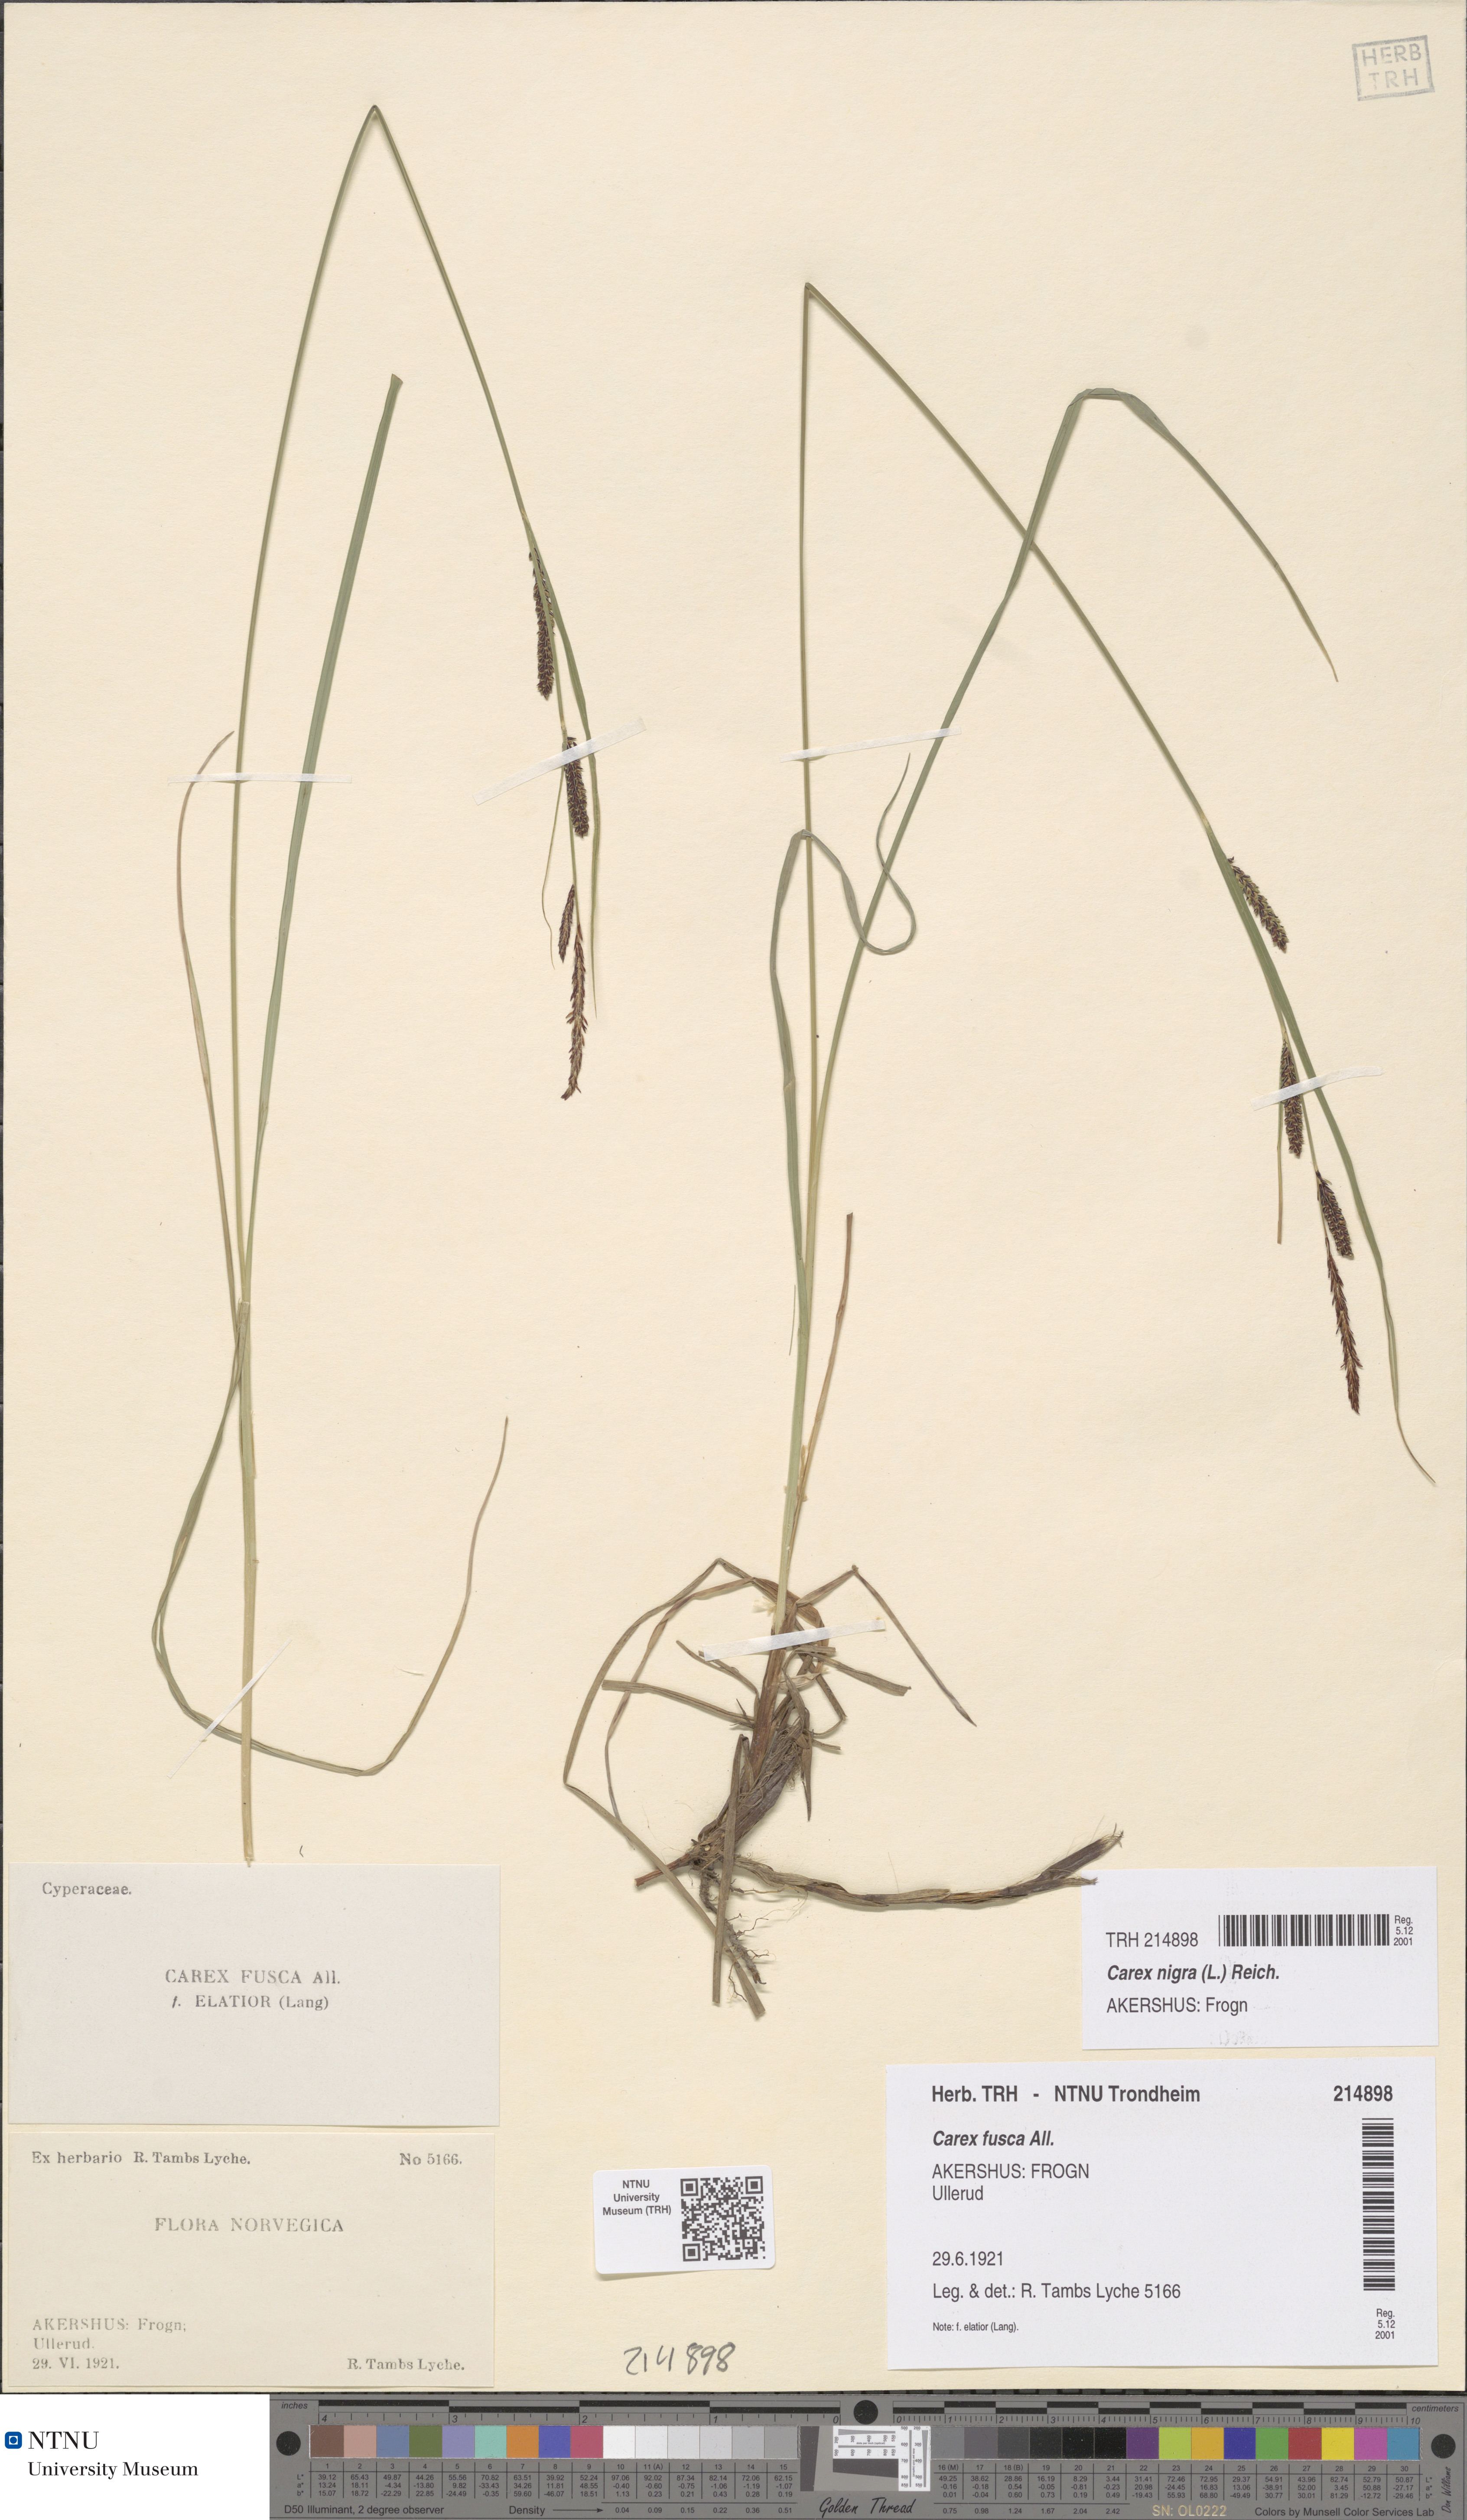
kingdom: Plantae
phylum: Tracheophyta
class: Liliopsida
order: Poales
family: Cyperaceae
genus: Carex
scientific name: Carex nigra
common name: Common sedge
